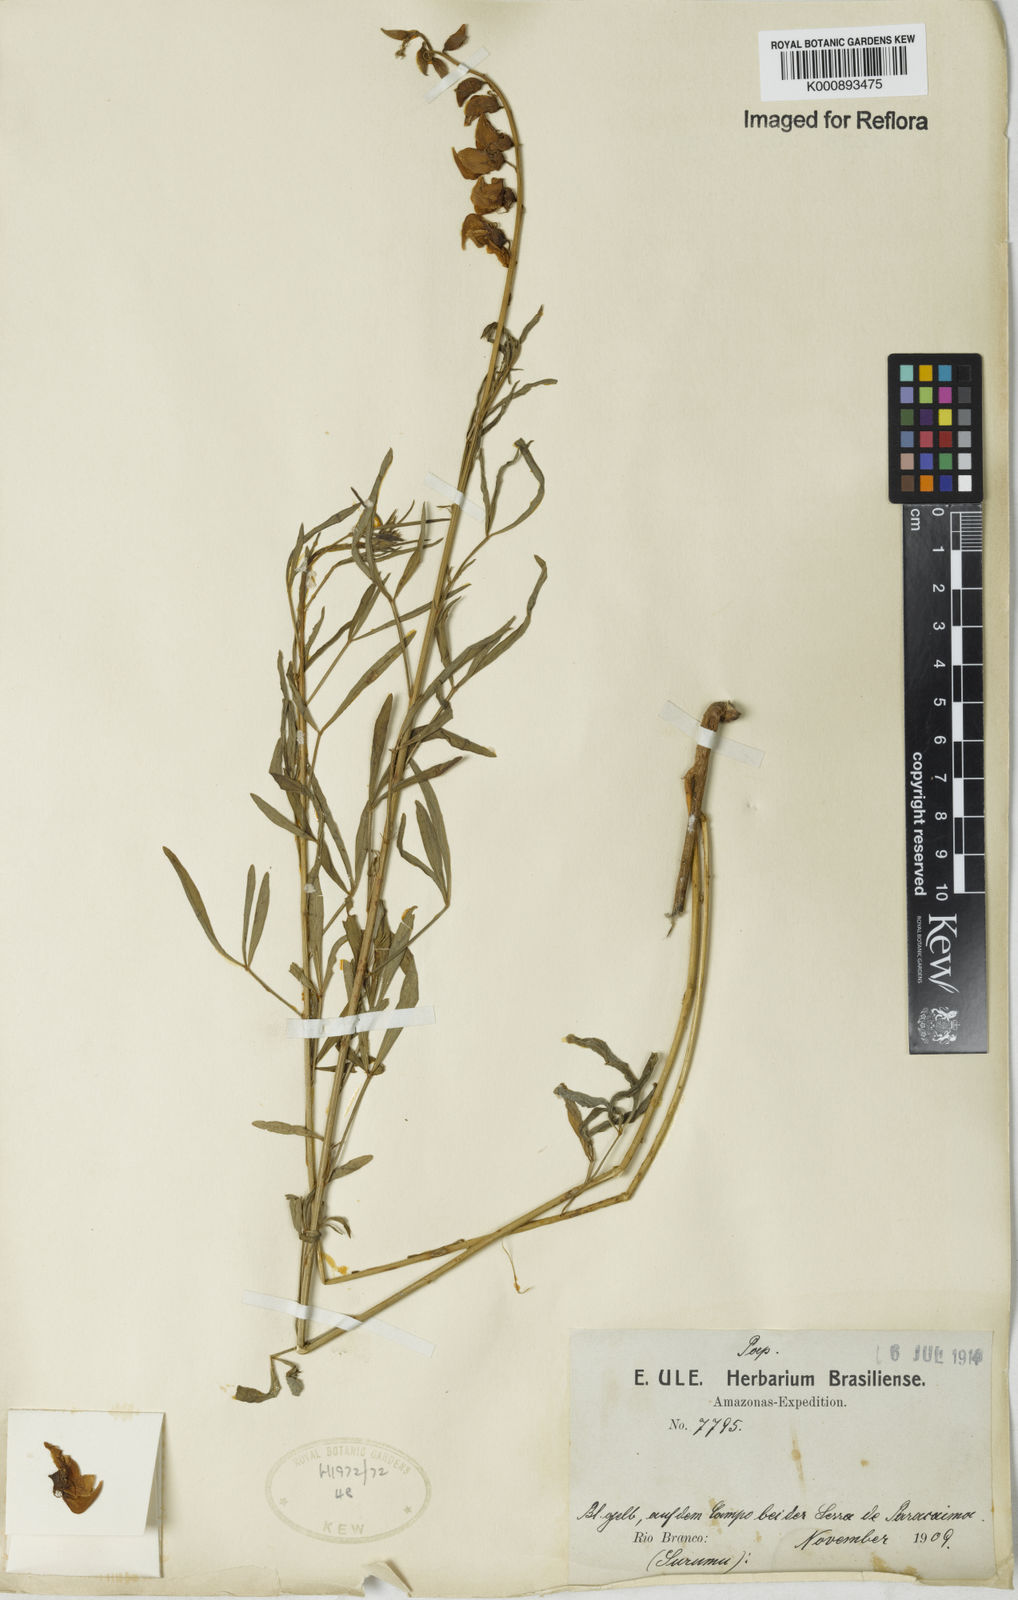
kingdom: Plantae
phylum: Tracheophyta
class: Magnoliopsida
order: Fabales
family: Fabaceae
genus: Crotalaria
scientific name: Crotalaria maypurensis
